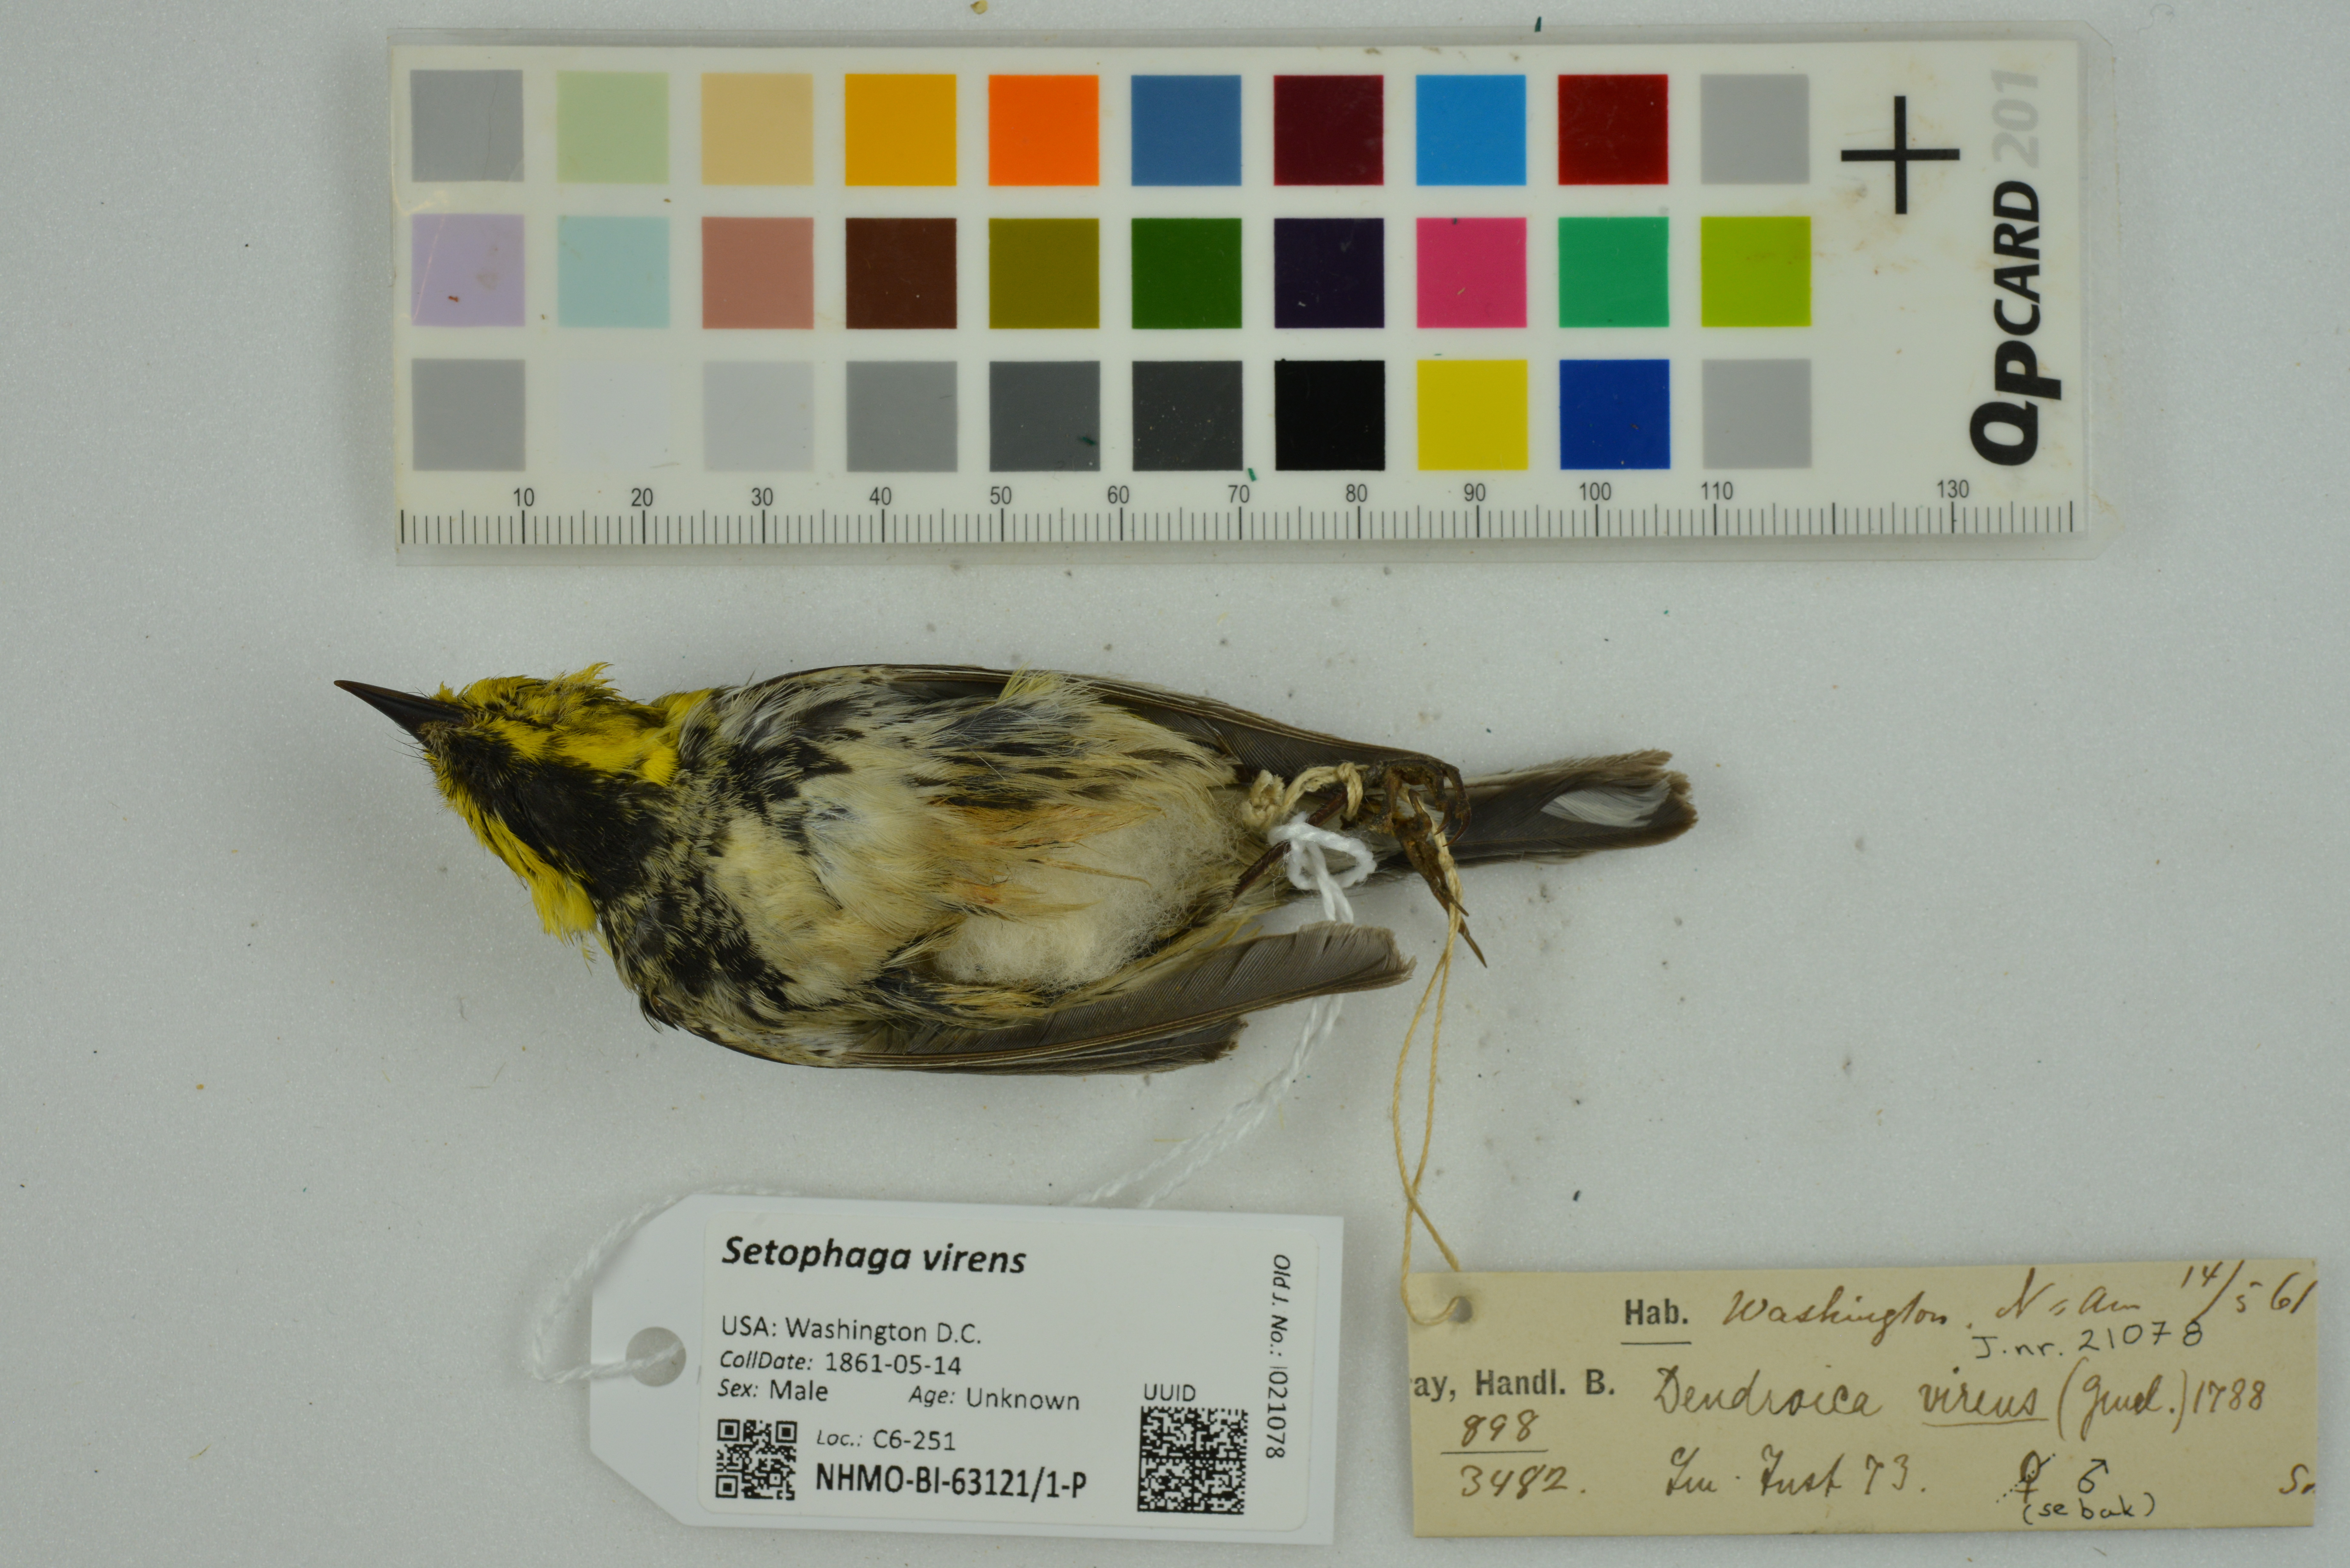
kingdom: Animalia
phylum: Chordata
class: Aves
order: Passeriformes
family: Parulidae
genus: Setophaga
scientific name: Setophaga virens
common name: Black-throated green warbler
